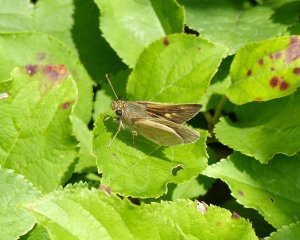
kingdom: Animalia
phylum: Arthropoda
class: Insecta
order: Lepidoptera
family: Hesperiidae
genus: Polites
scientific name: Polites
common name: Crossline Skipper
